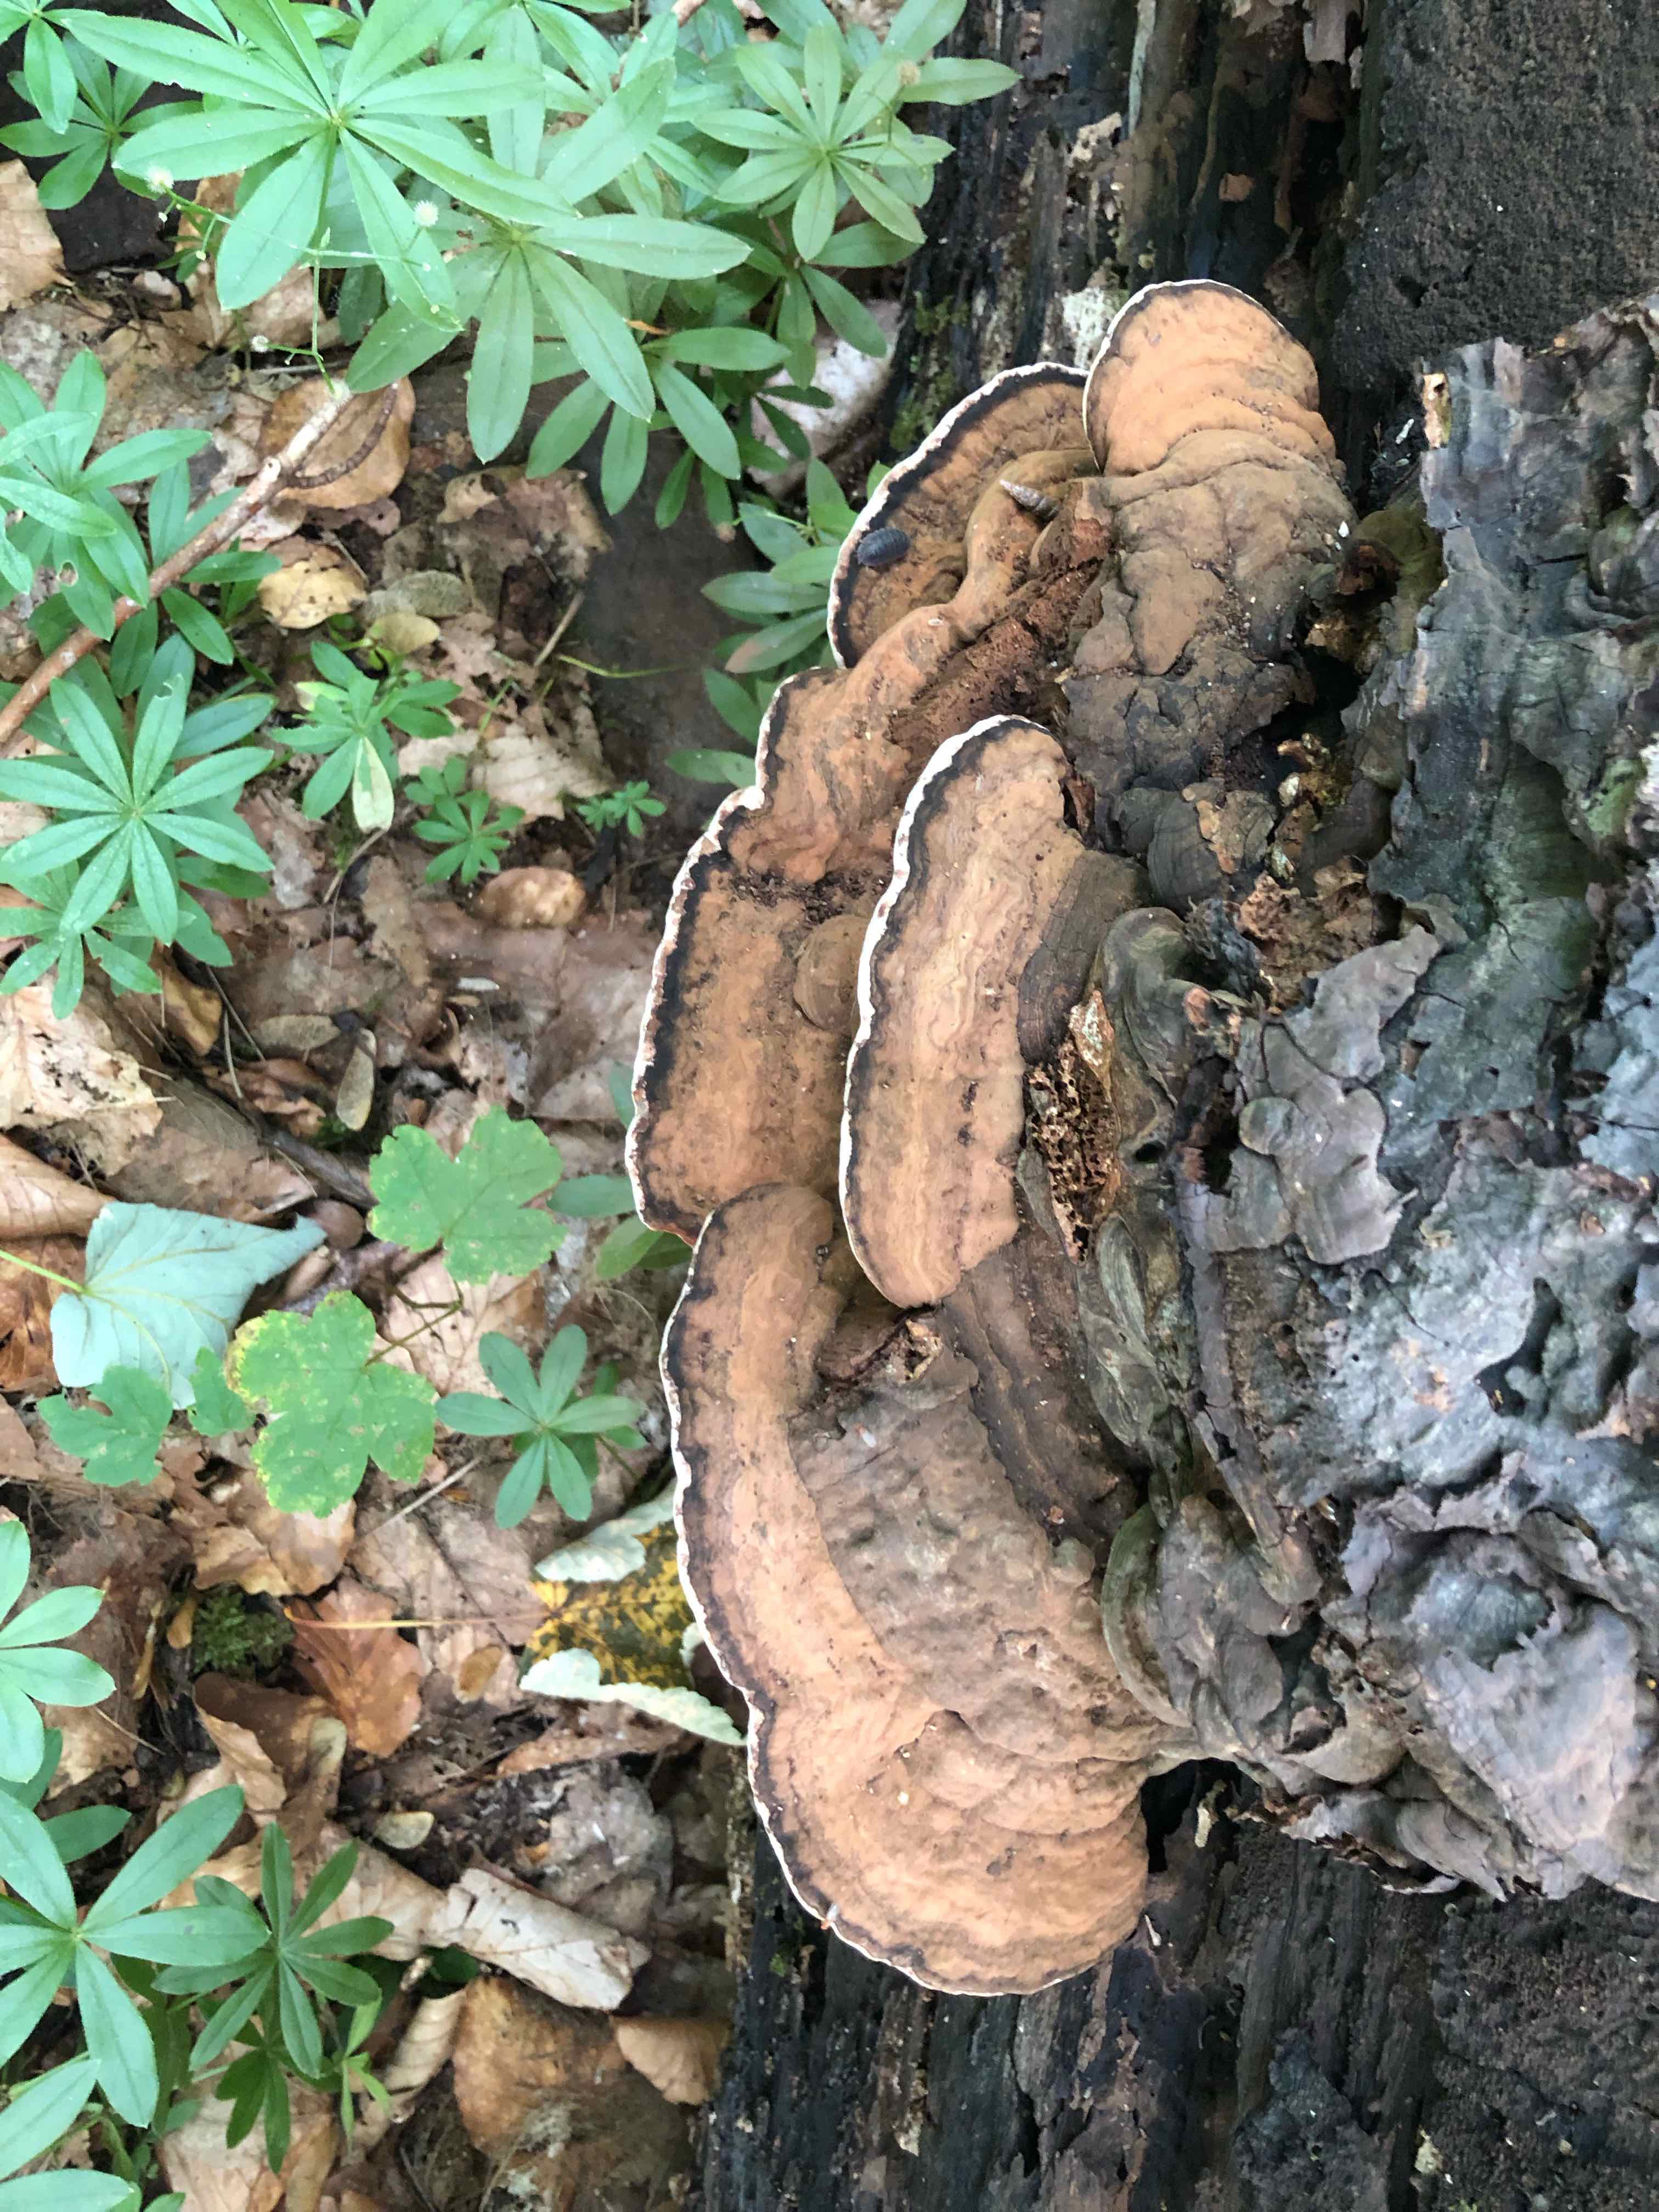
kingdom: Fungi
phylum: Basidiomycota
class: Agaricomycetes
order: Polyporales
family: Polyporaceae
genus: Ganoderma
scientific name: Ganoderma applanatum
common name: flad lakporesvamp
